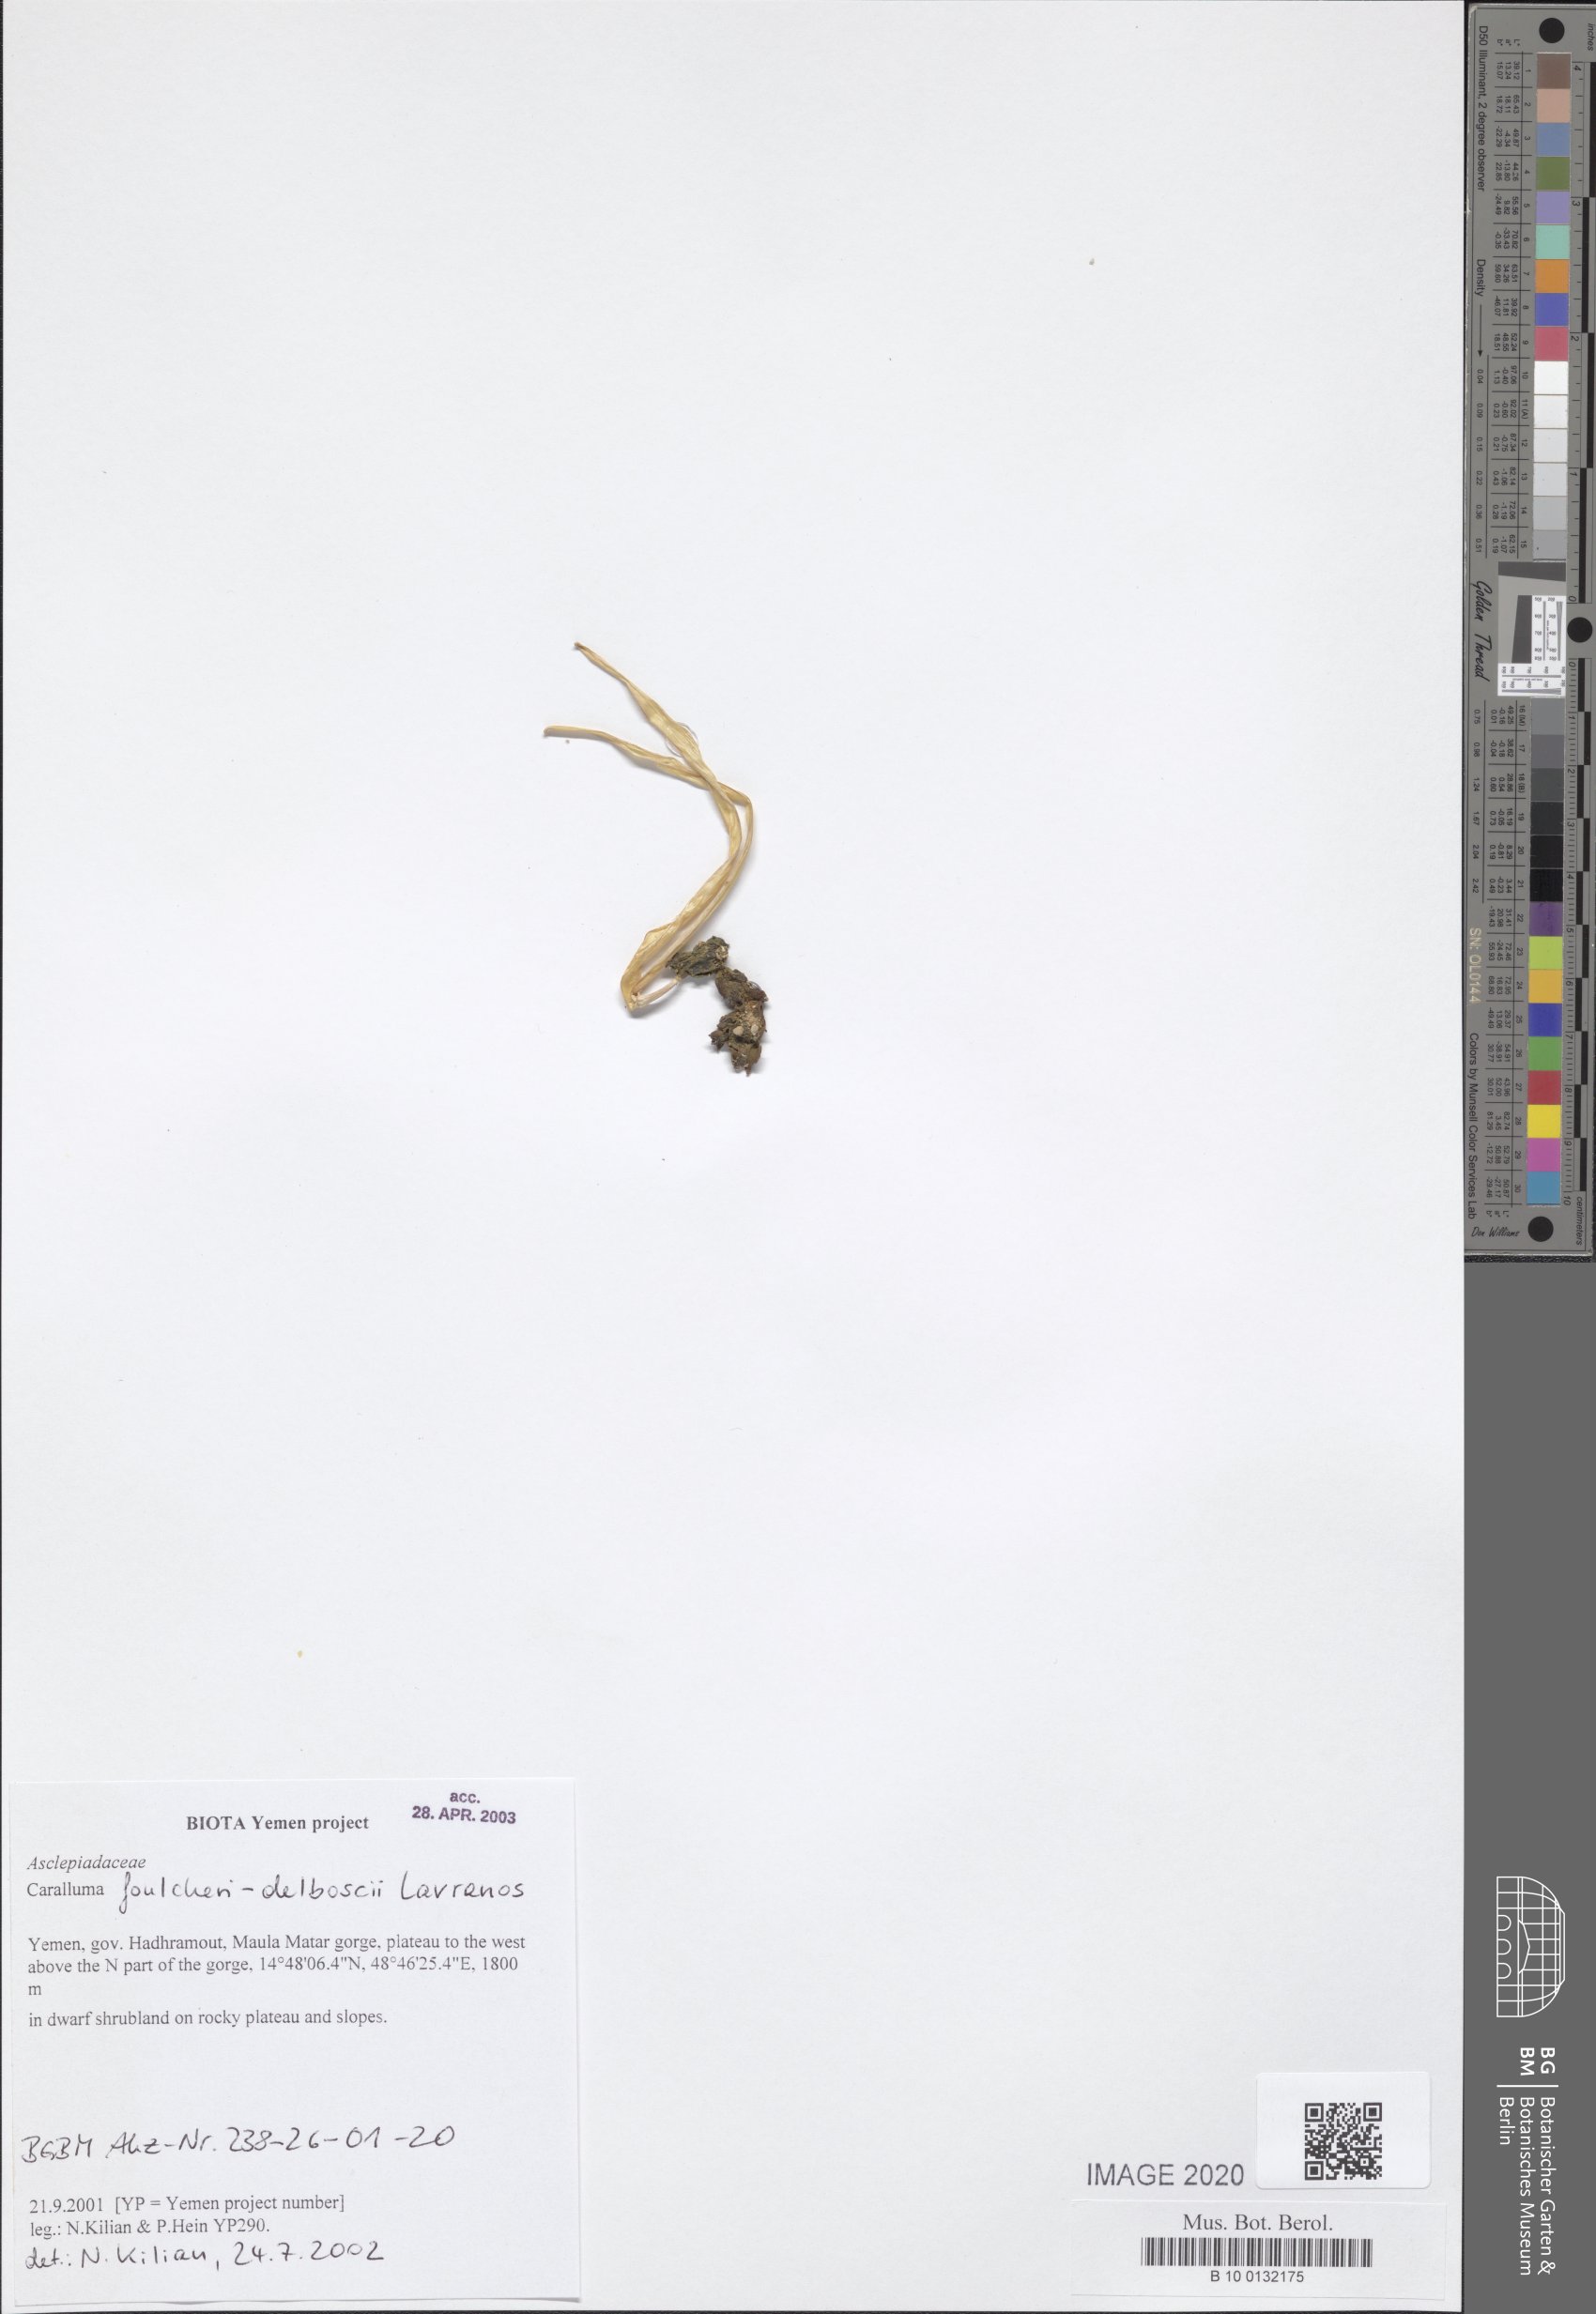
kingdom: Plantae
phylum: Tracheophyta
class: Magnoliopsida
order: Gentianales
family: Apocynaceae
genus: Ceropegia
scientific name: Ceropegia hexagona
